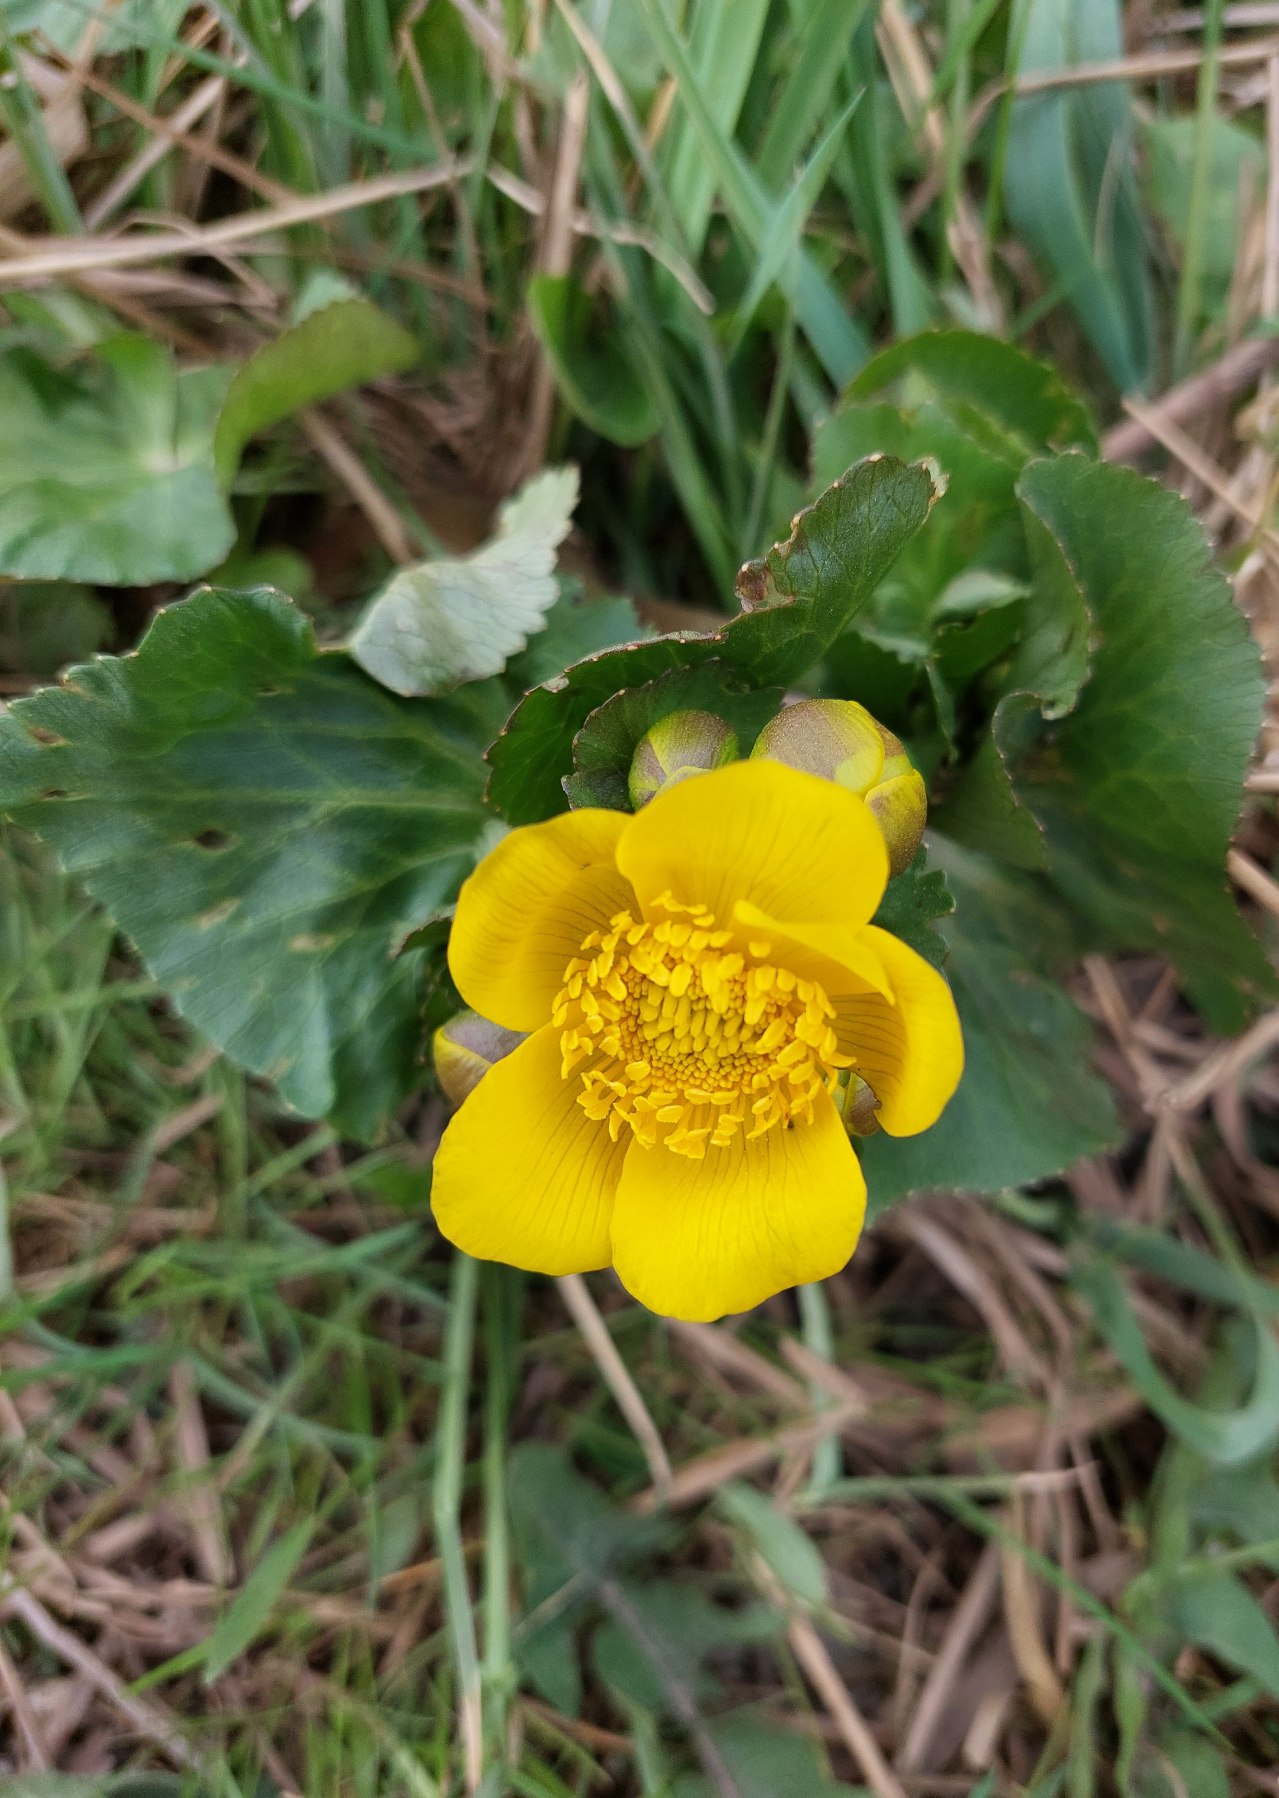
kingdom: Plantae
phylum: Tracheophyta
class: Magnoliopsida
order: Ranunculales
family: Ranunculaceae
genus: Caltha
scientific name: Caltha palustris
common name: Eng-kabbeleje
